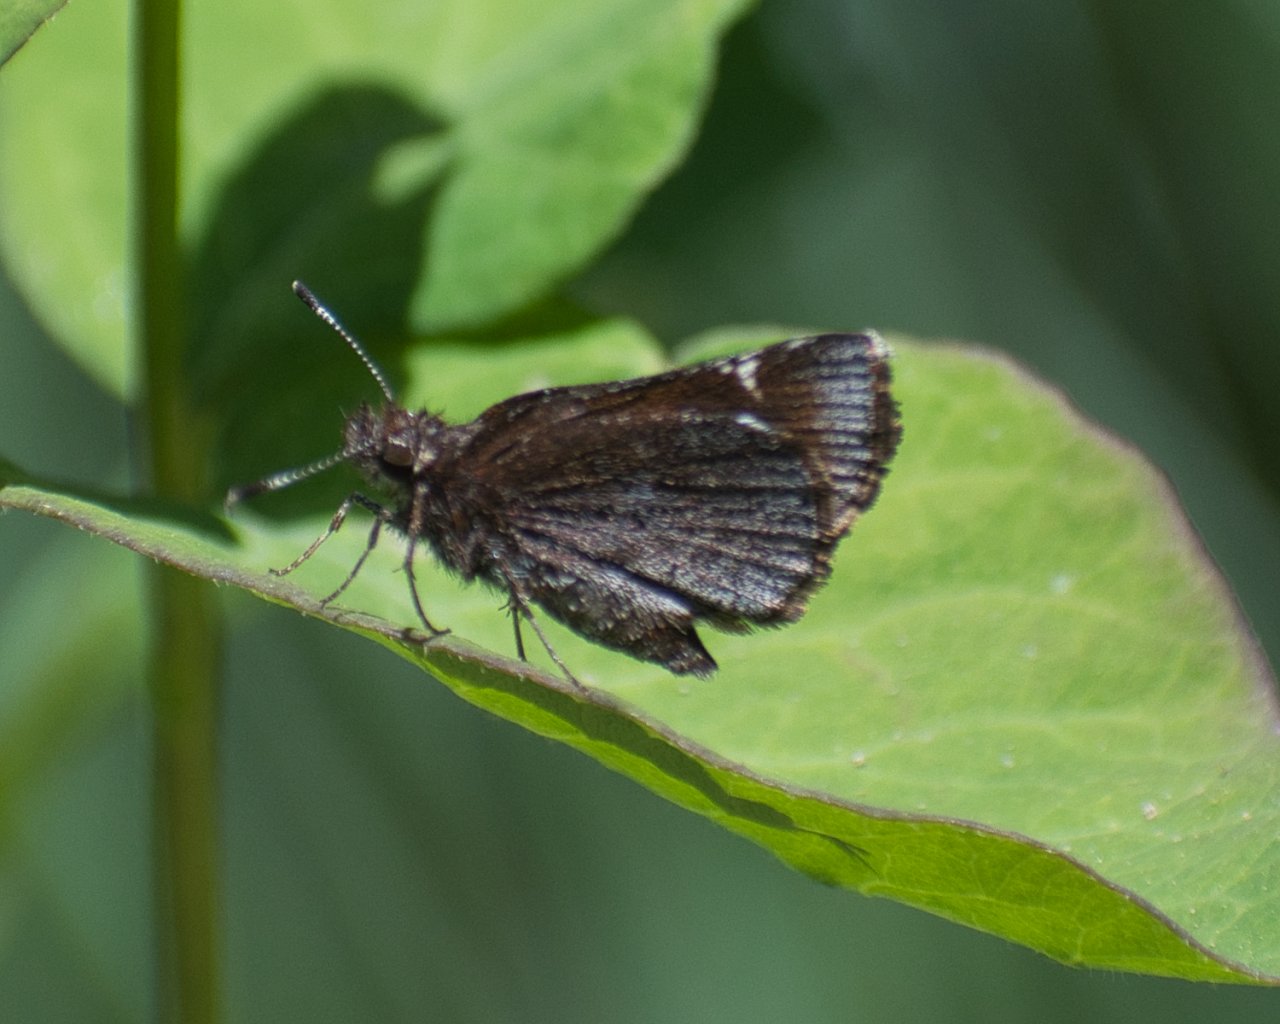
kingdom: Animalia
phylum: Arthropoda
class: Insecta
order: Lepidoptera
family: Hesperiidae
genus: Mastor
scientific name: Mastor vialis
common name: Common Roadside-Skipper
